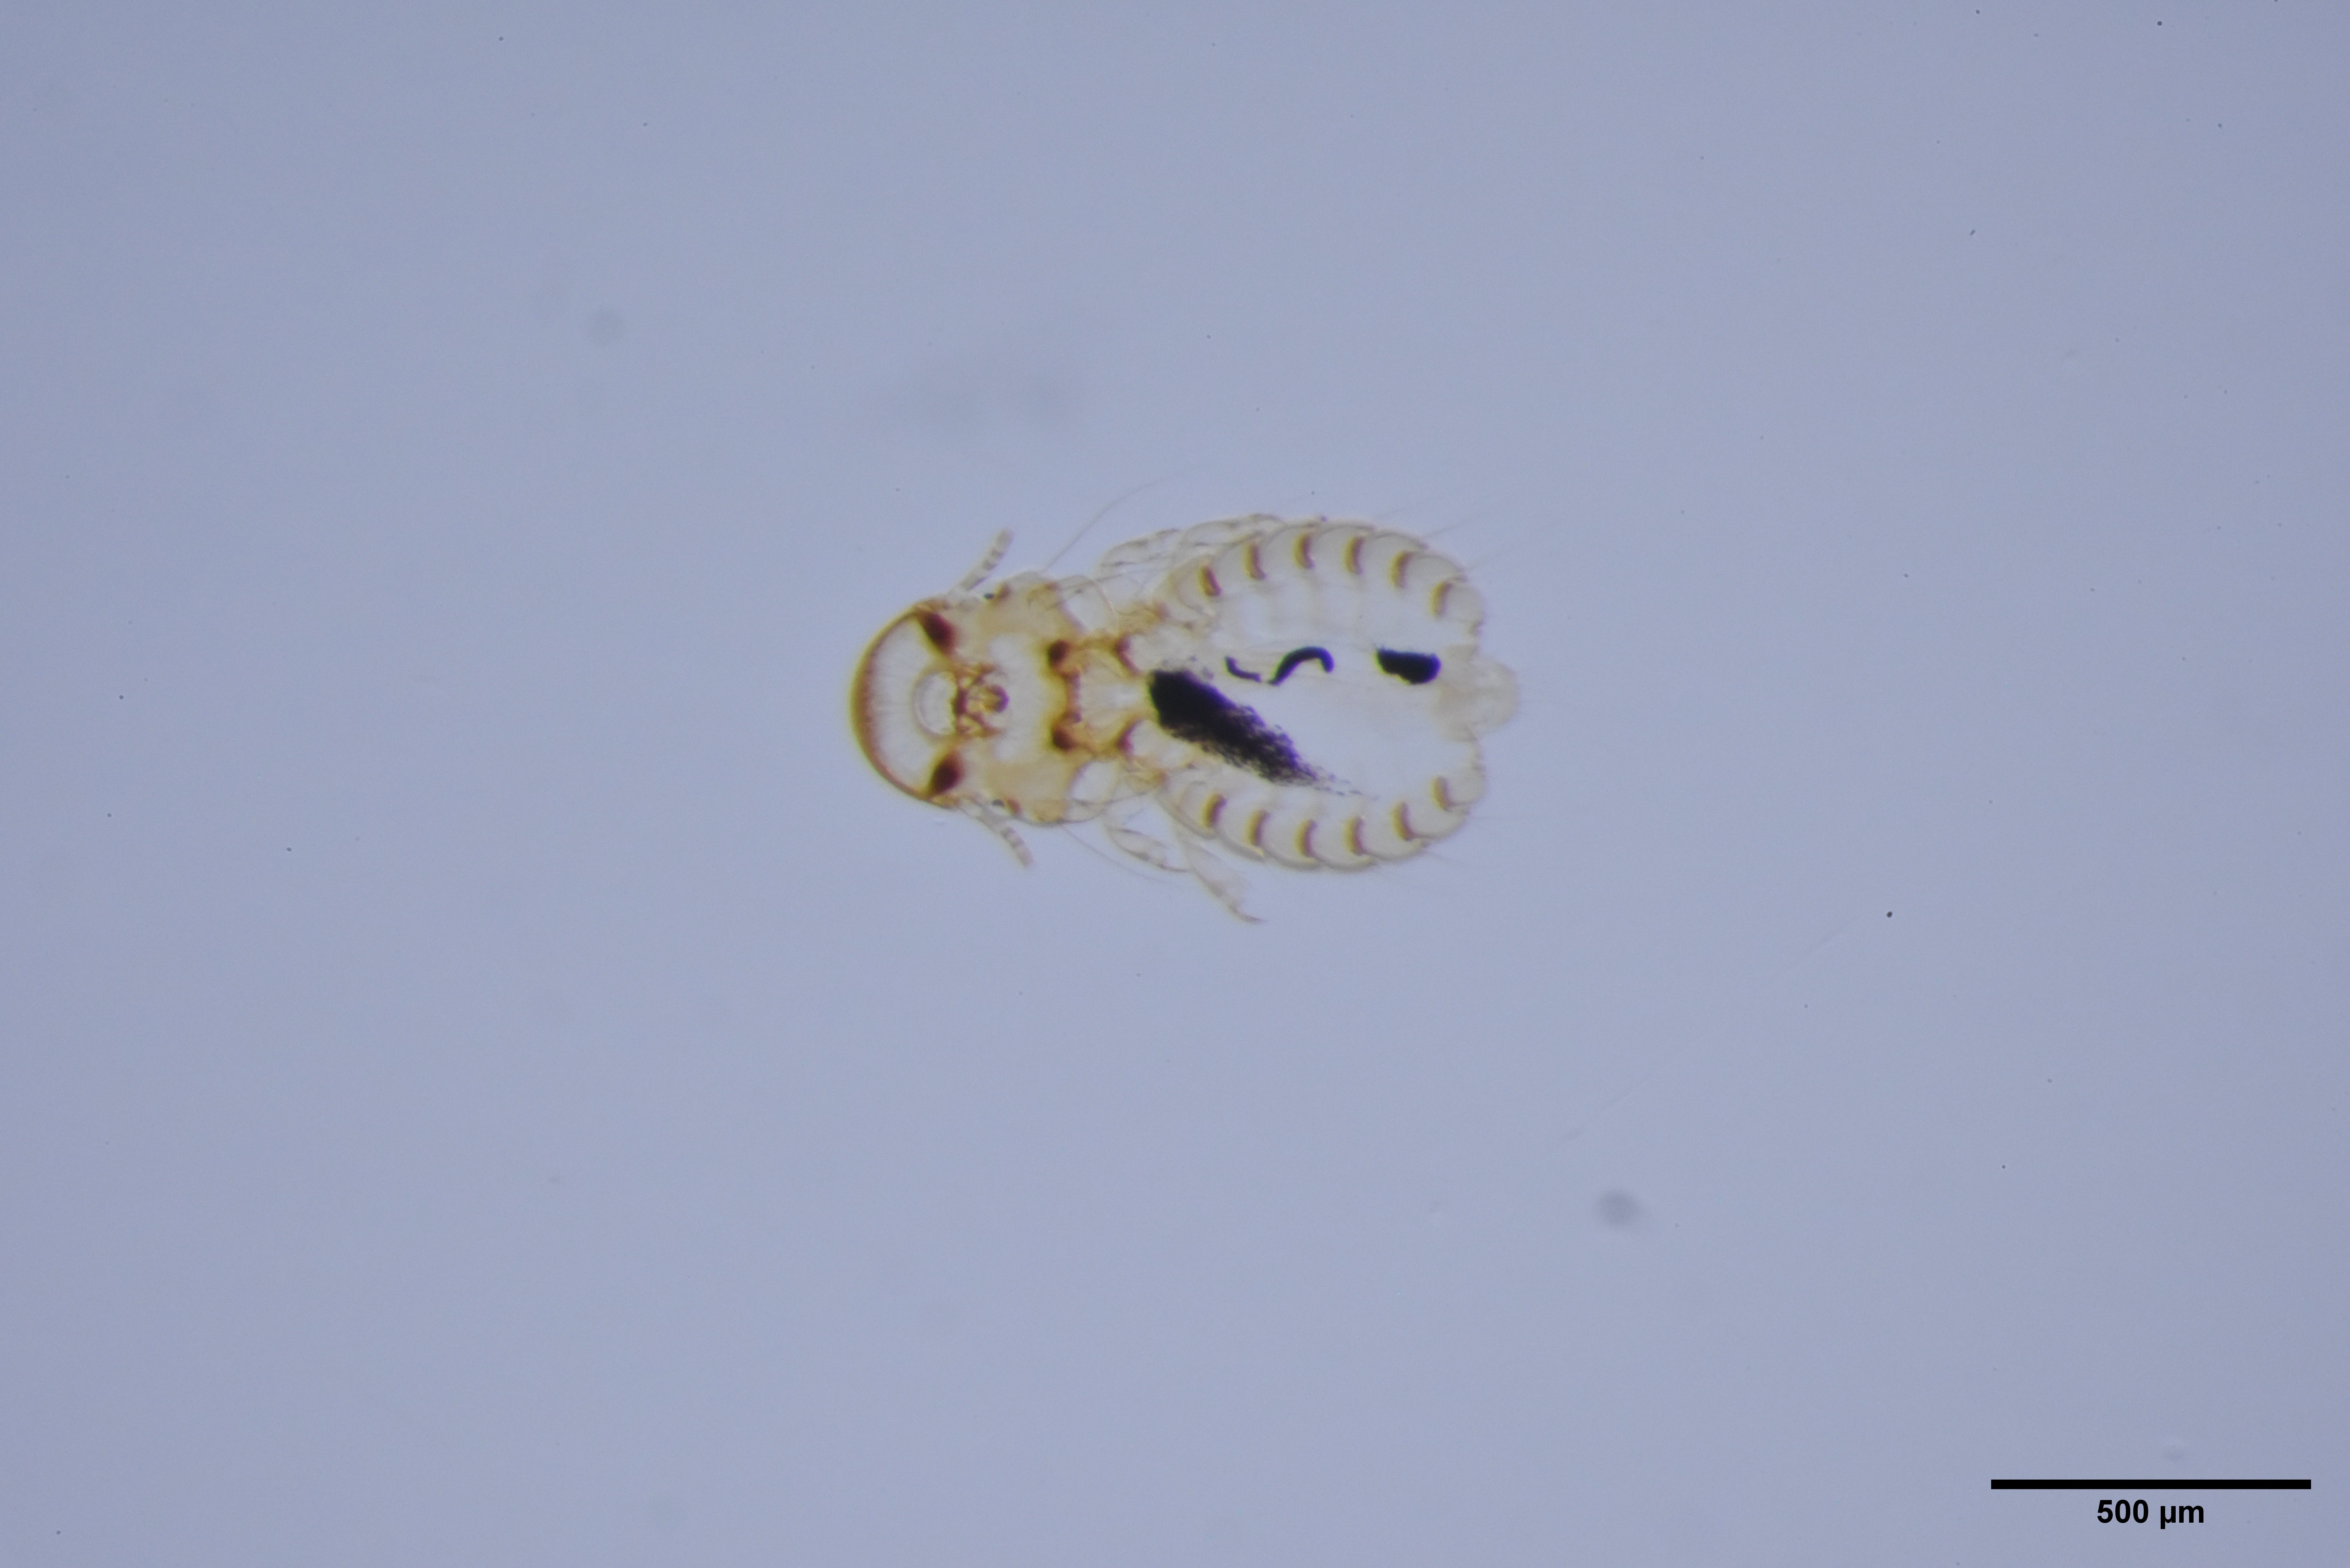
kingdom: Animalia
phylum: Arthropoda
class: Insecta
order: Psocodea
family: Philopteridae
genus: Goniocotes
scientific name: Goniocotes
